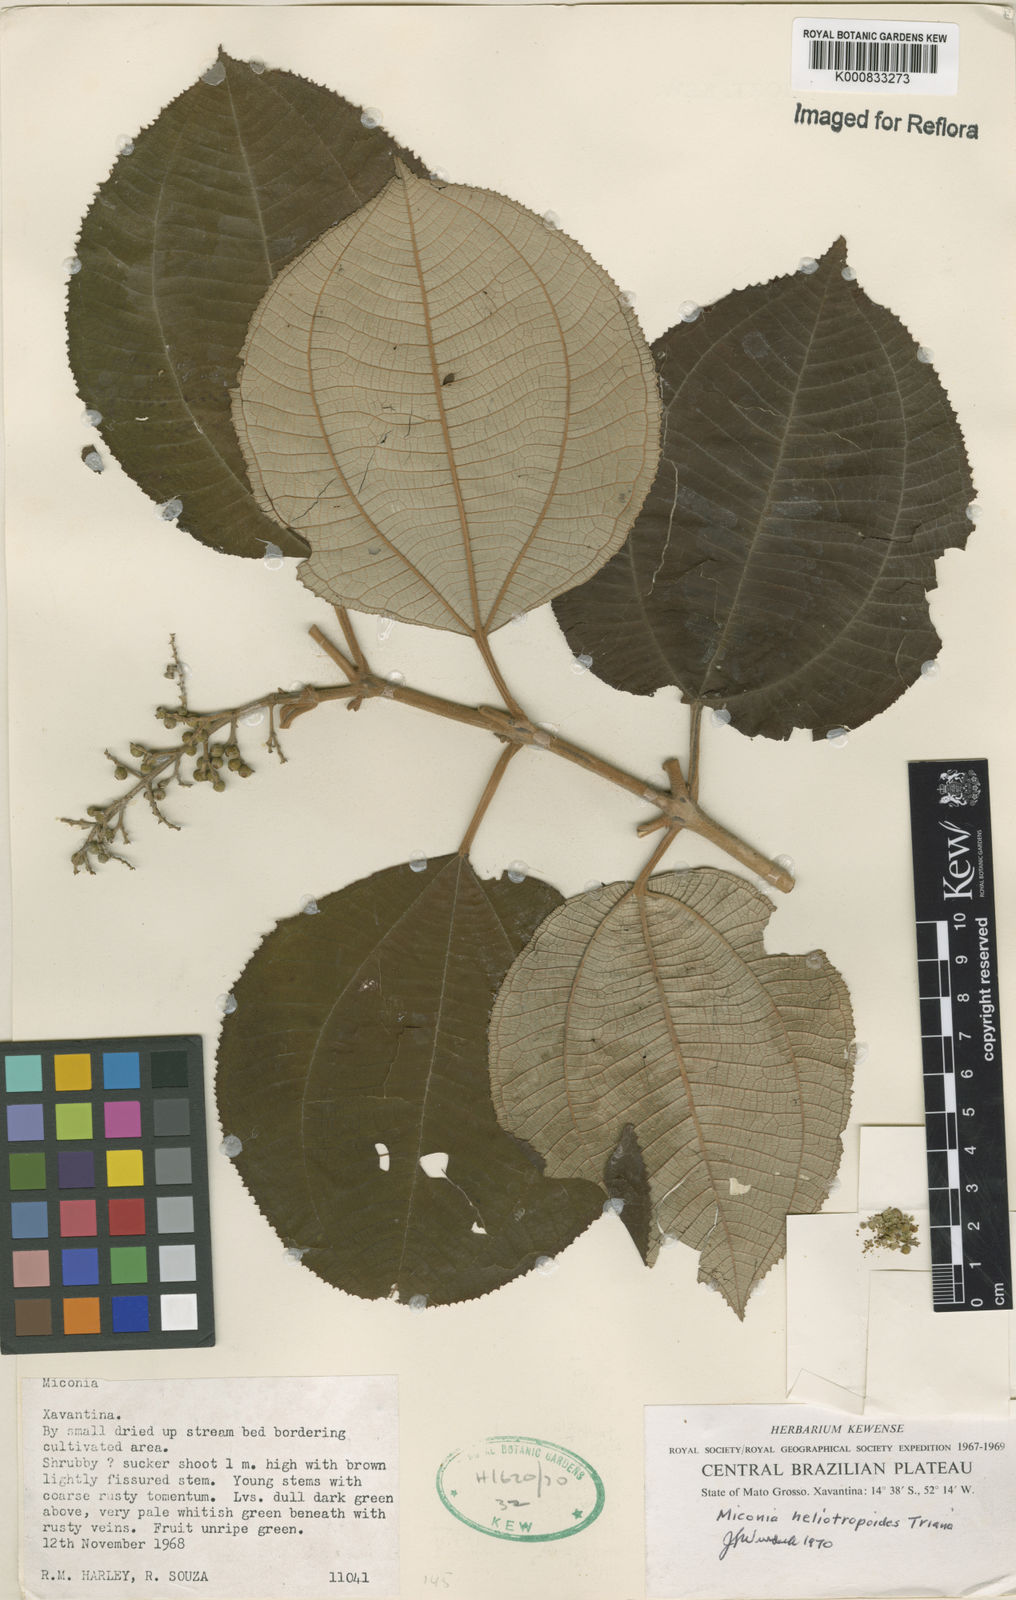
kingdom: Plantae
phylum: Tracheophyta
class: Magnoliopsida
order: Myrtales
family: Melastomataceae
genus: Miconia
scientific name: Miconia heliotropoides
